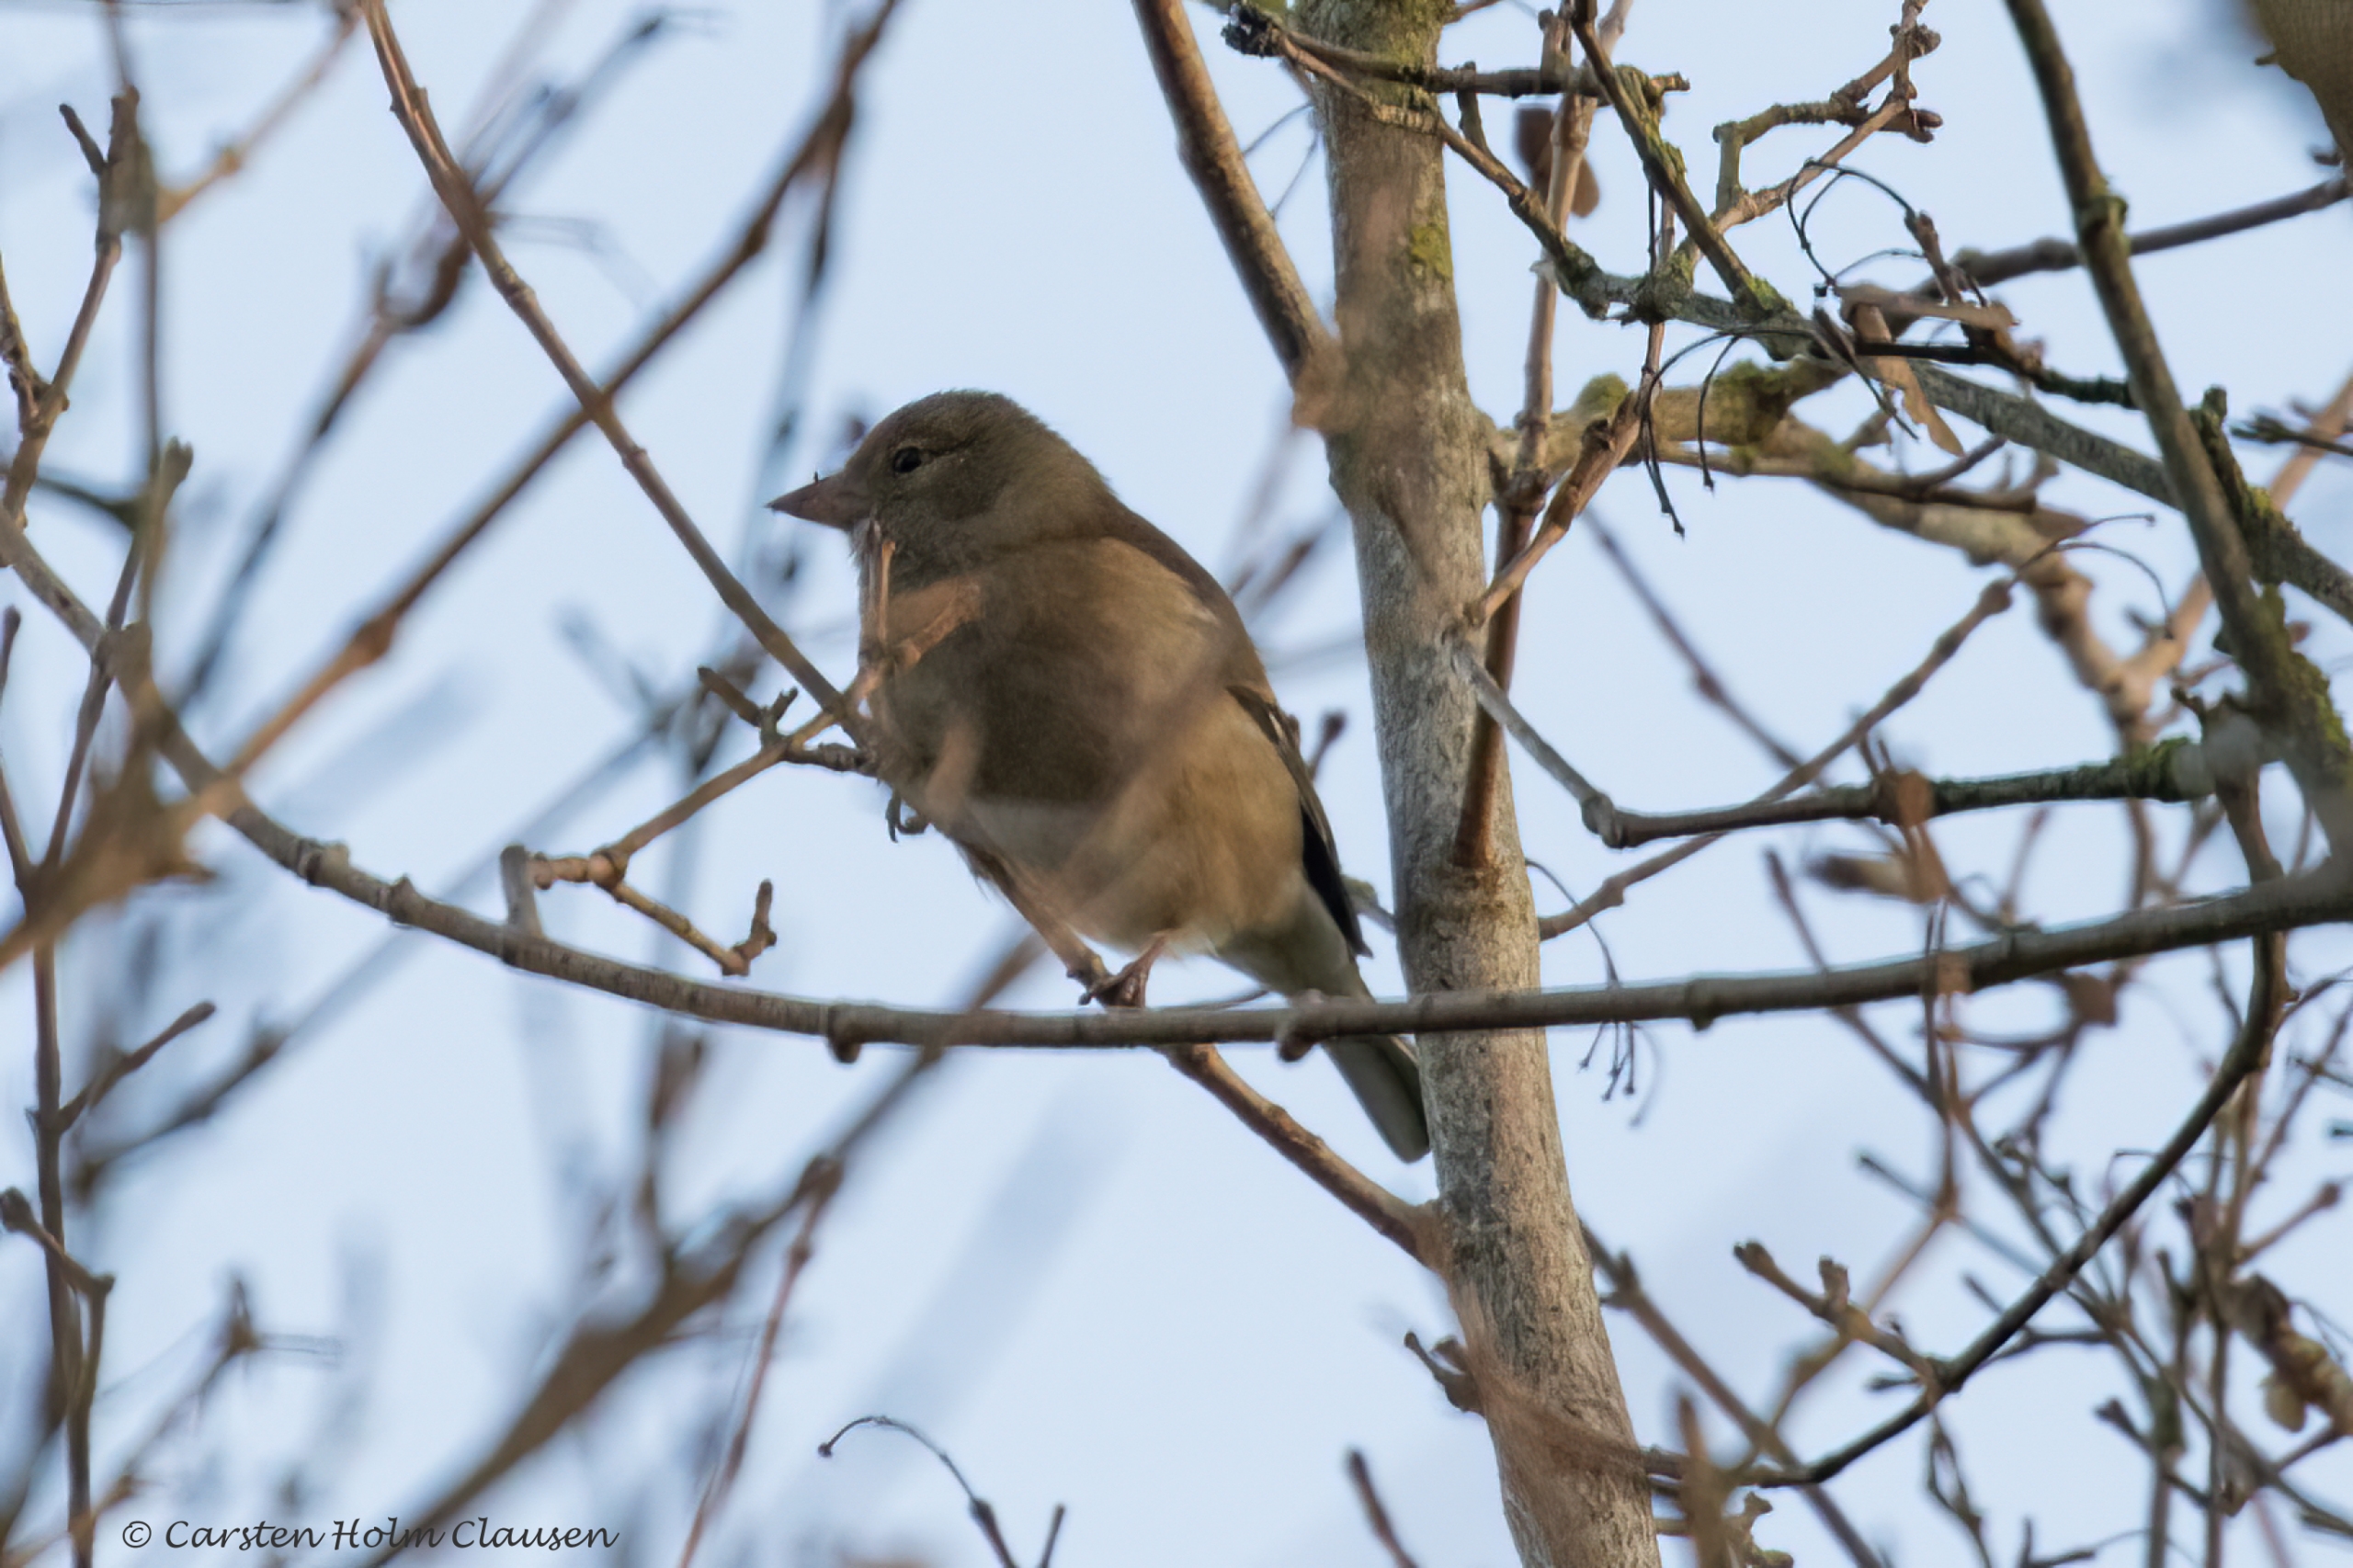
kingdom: Animalia
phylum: Chordata
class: Aves
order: Passeriformes
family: Fringillidae
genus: Fringilla
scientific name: Fringilla coelebs
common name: Bogfinke
